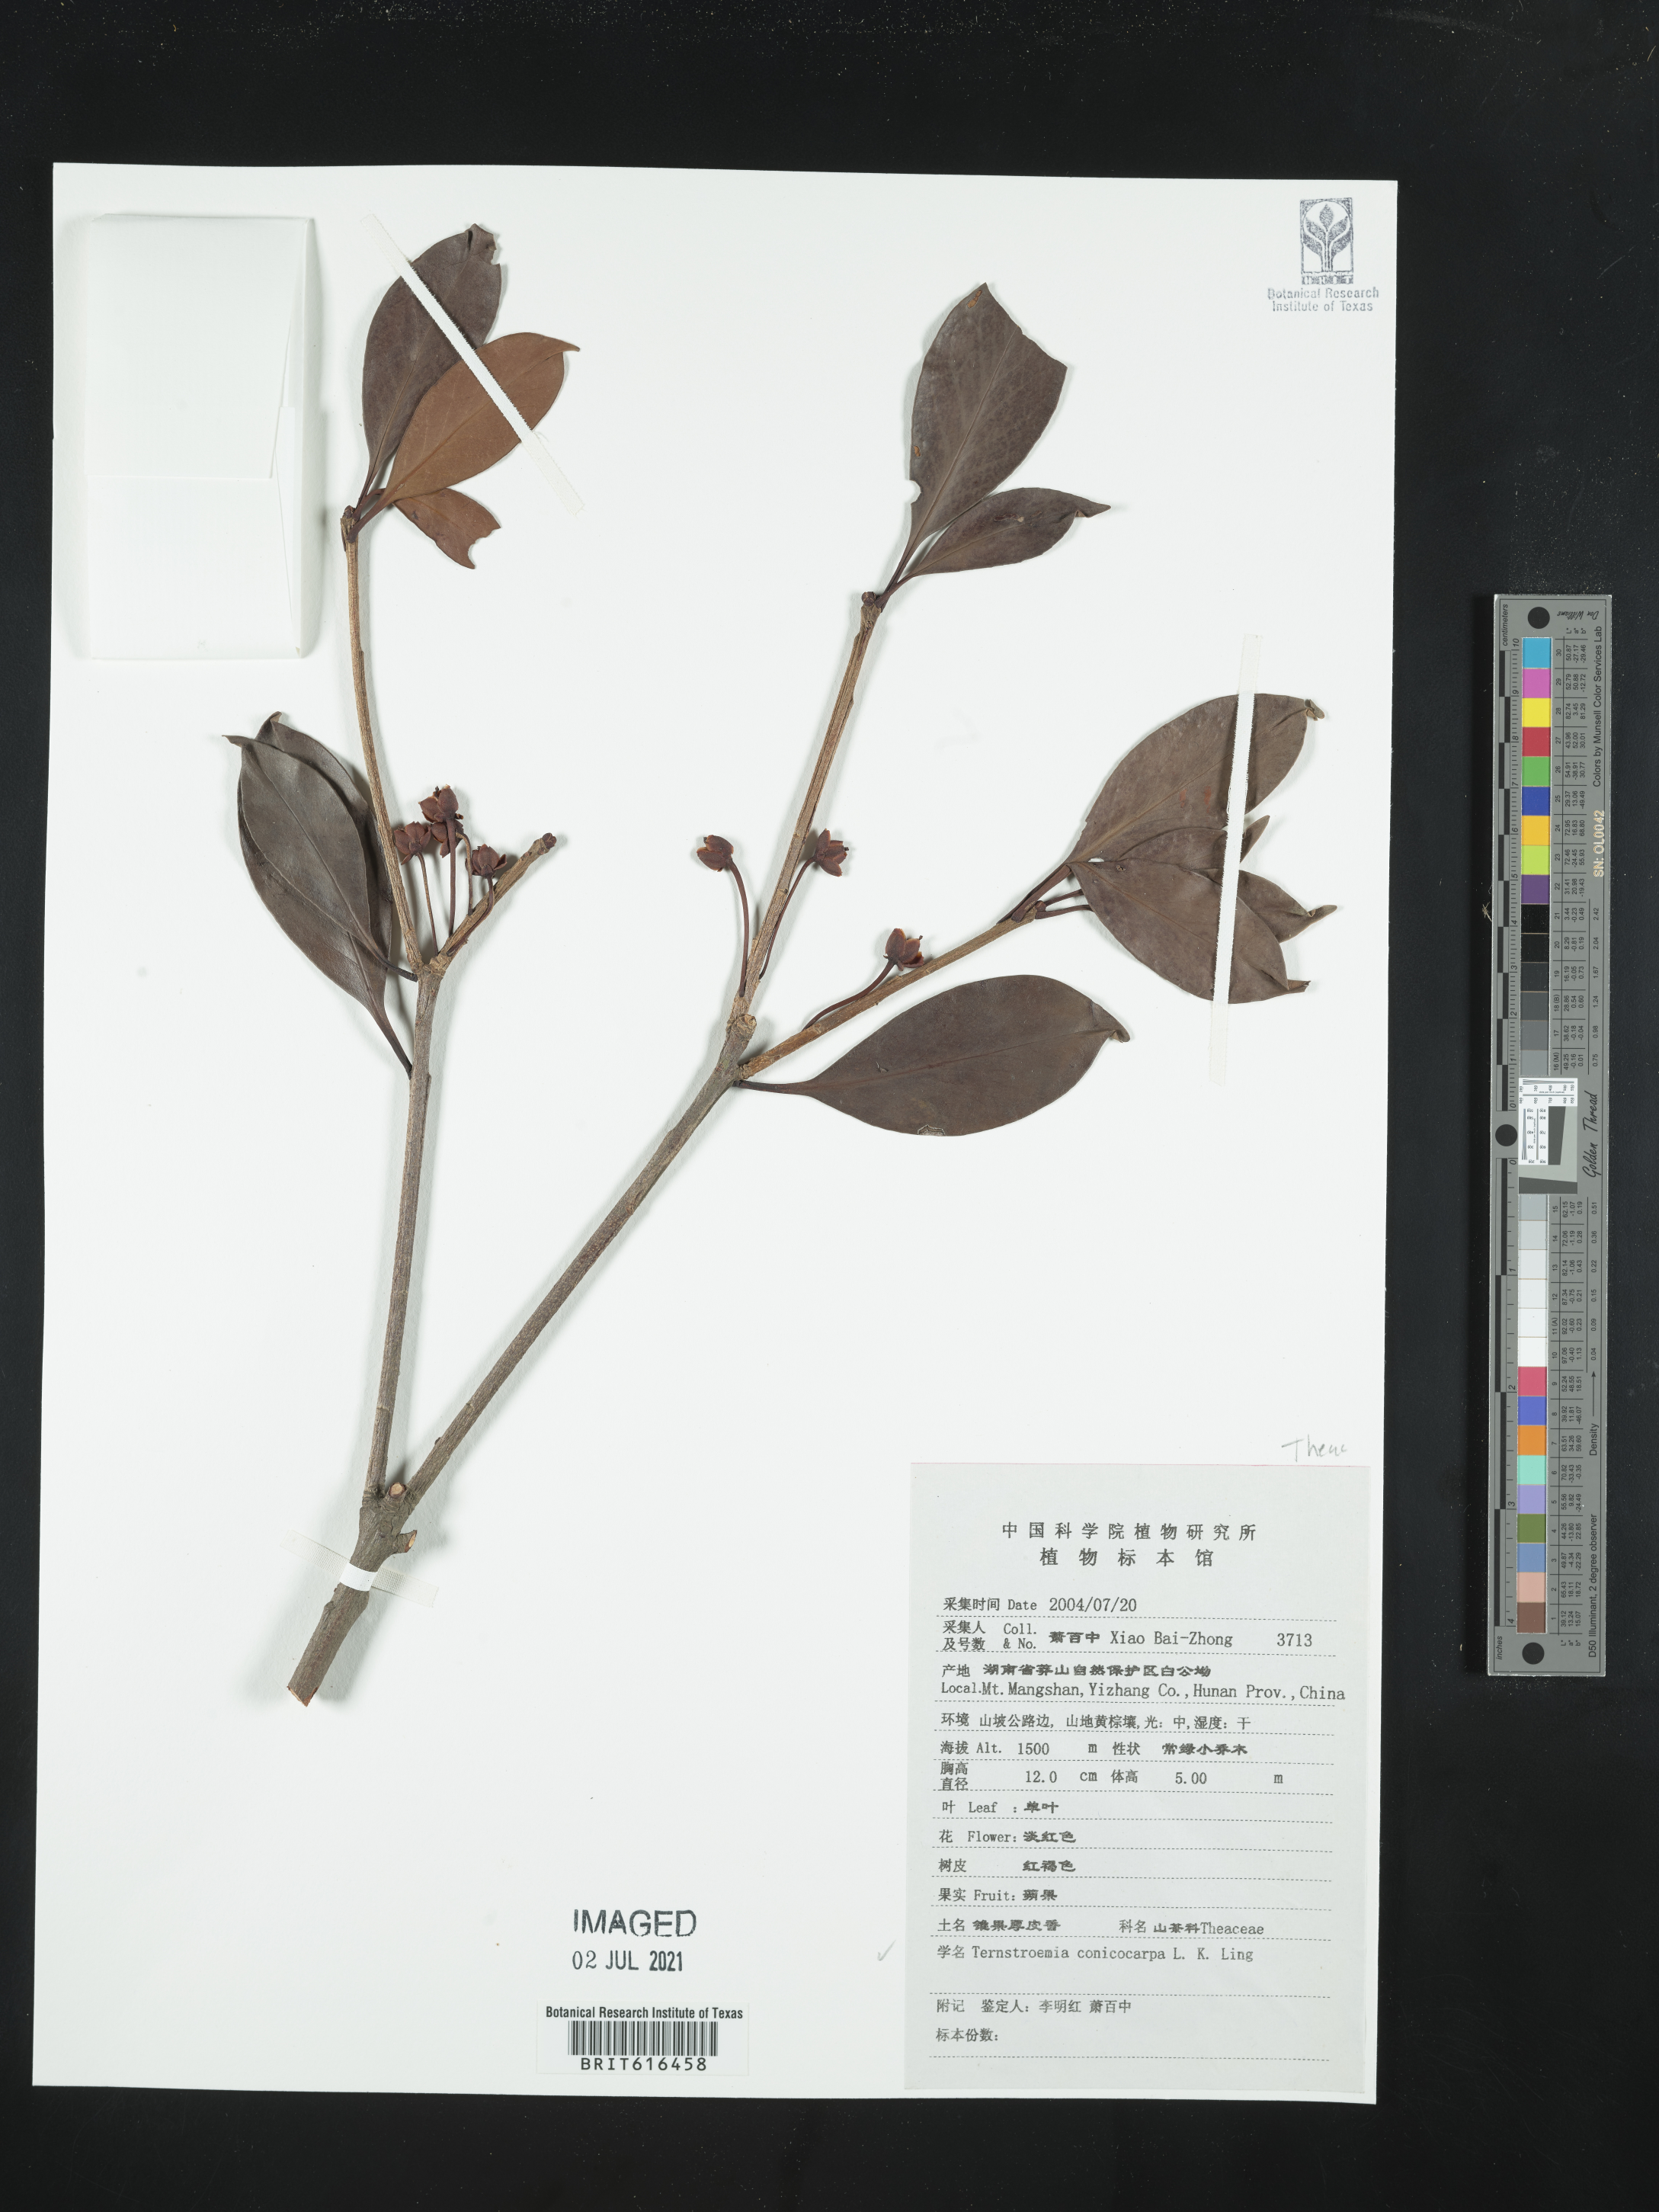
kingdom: Plantae
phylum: Tracheophyta
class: Magnoliopsida
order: Ericales
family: Pentaphylacaceae
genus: Ternstroemia
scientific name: Ternstroemia coniocarpa
